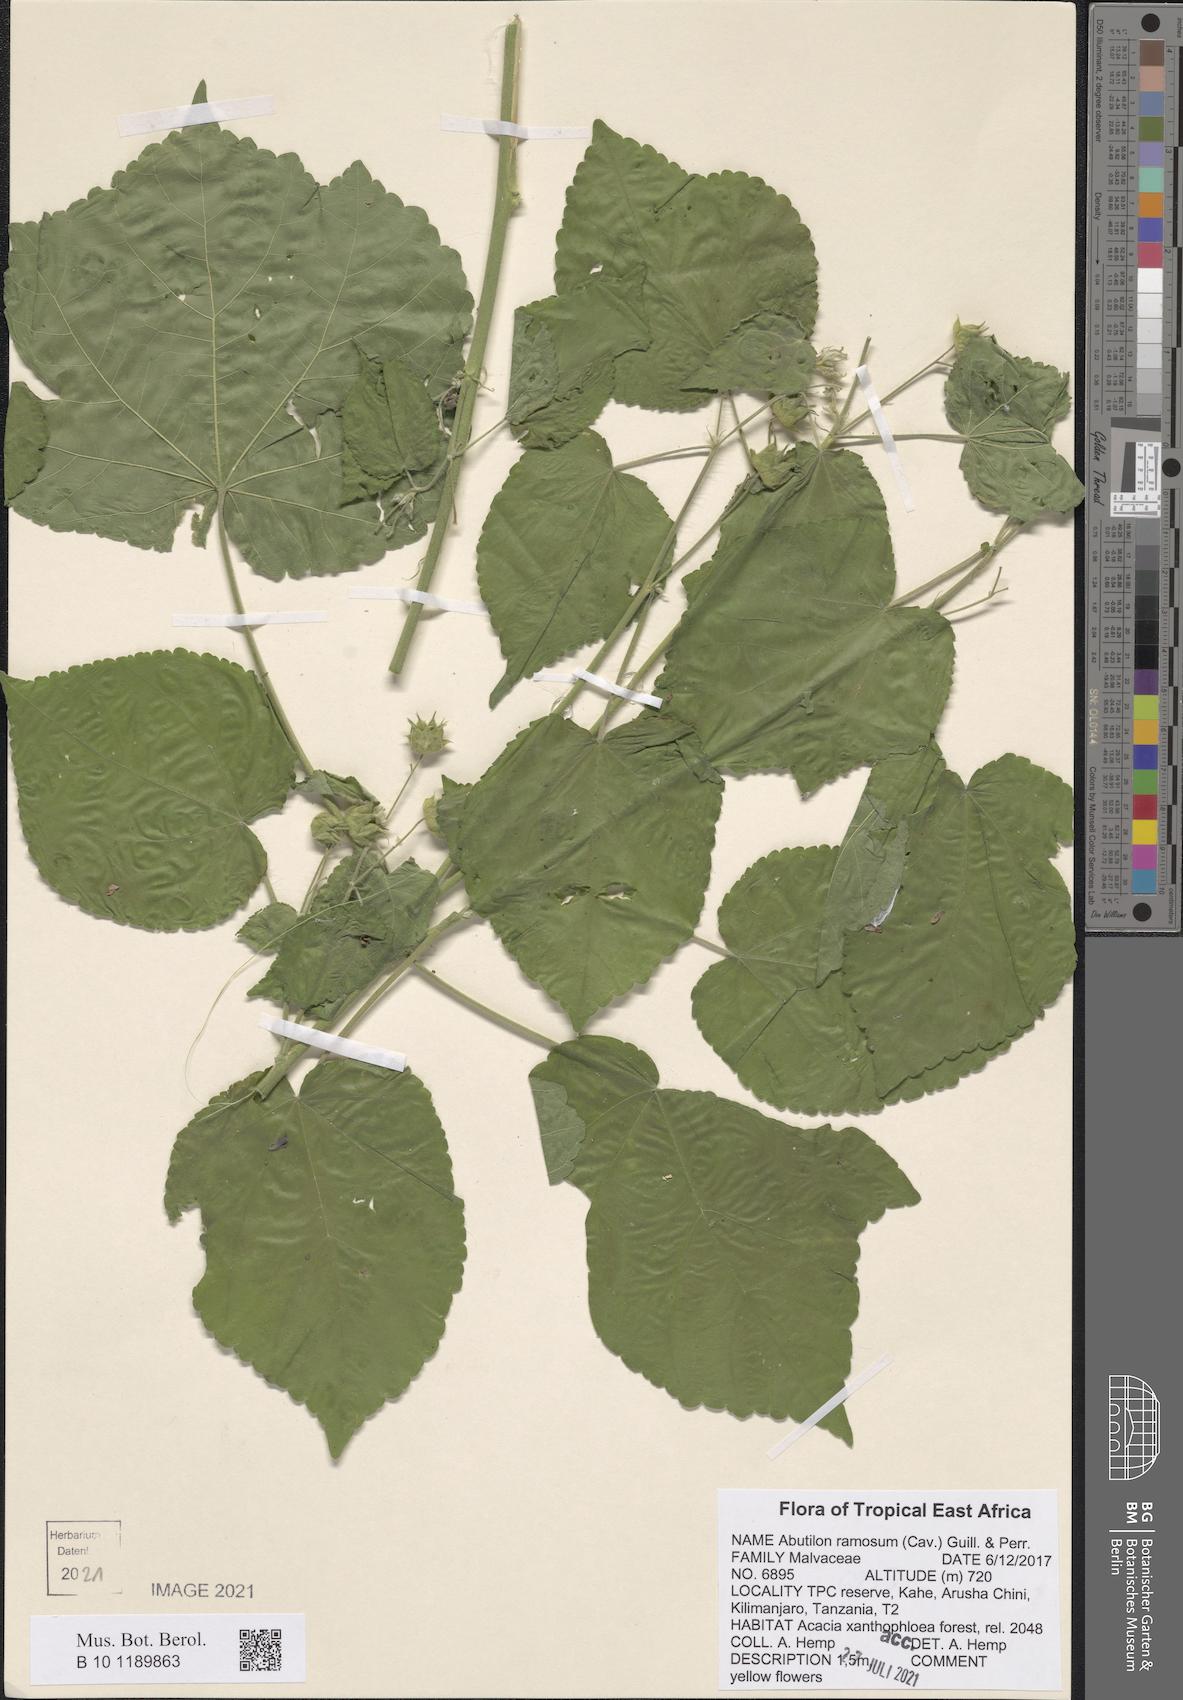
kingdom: Plantae
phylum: Tracheophyta
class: Magnoliopsida
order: Malvales
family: Malvaceae
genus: Abutilon
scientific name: Abutilon ramosum
